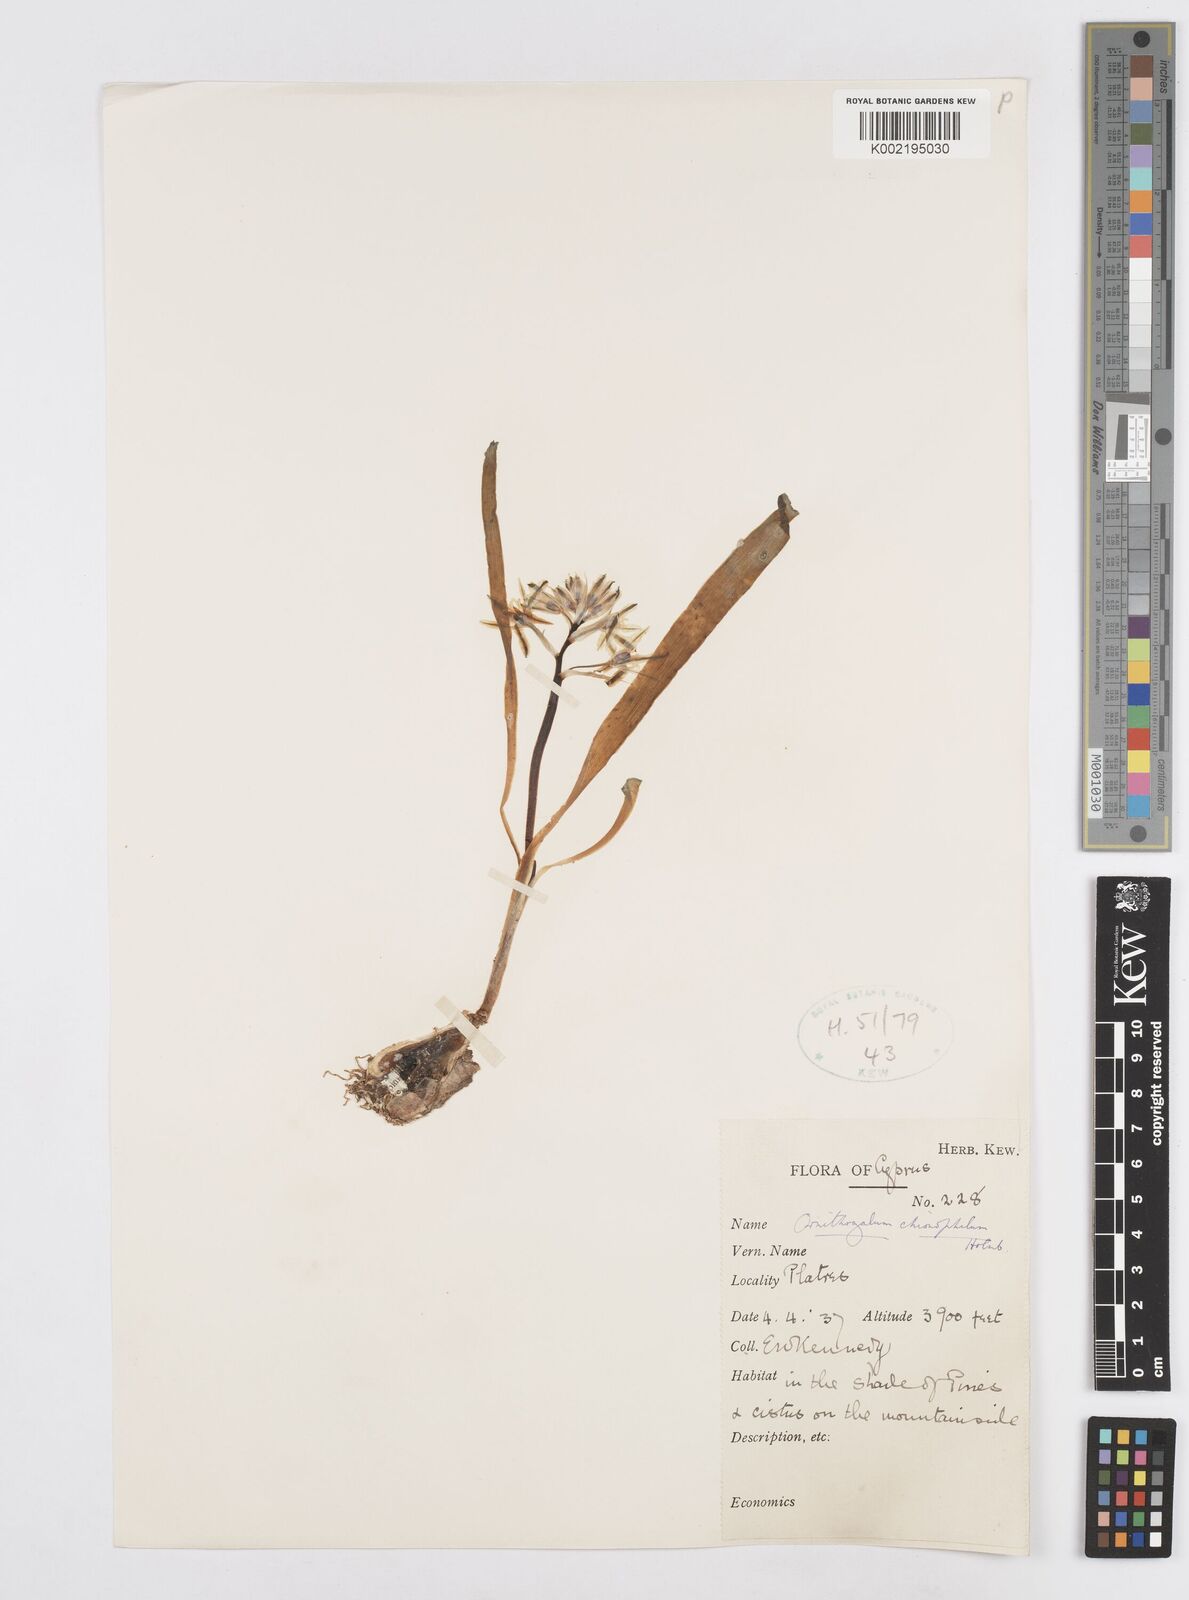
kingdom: Plantae
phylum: Tracheophyta
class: Liliopsida
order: Asparagales
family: Asparagaceae
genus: Ornithogalum
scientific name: Ornithogalum chionophilum
